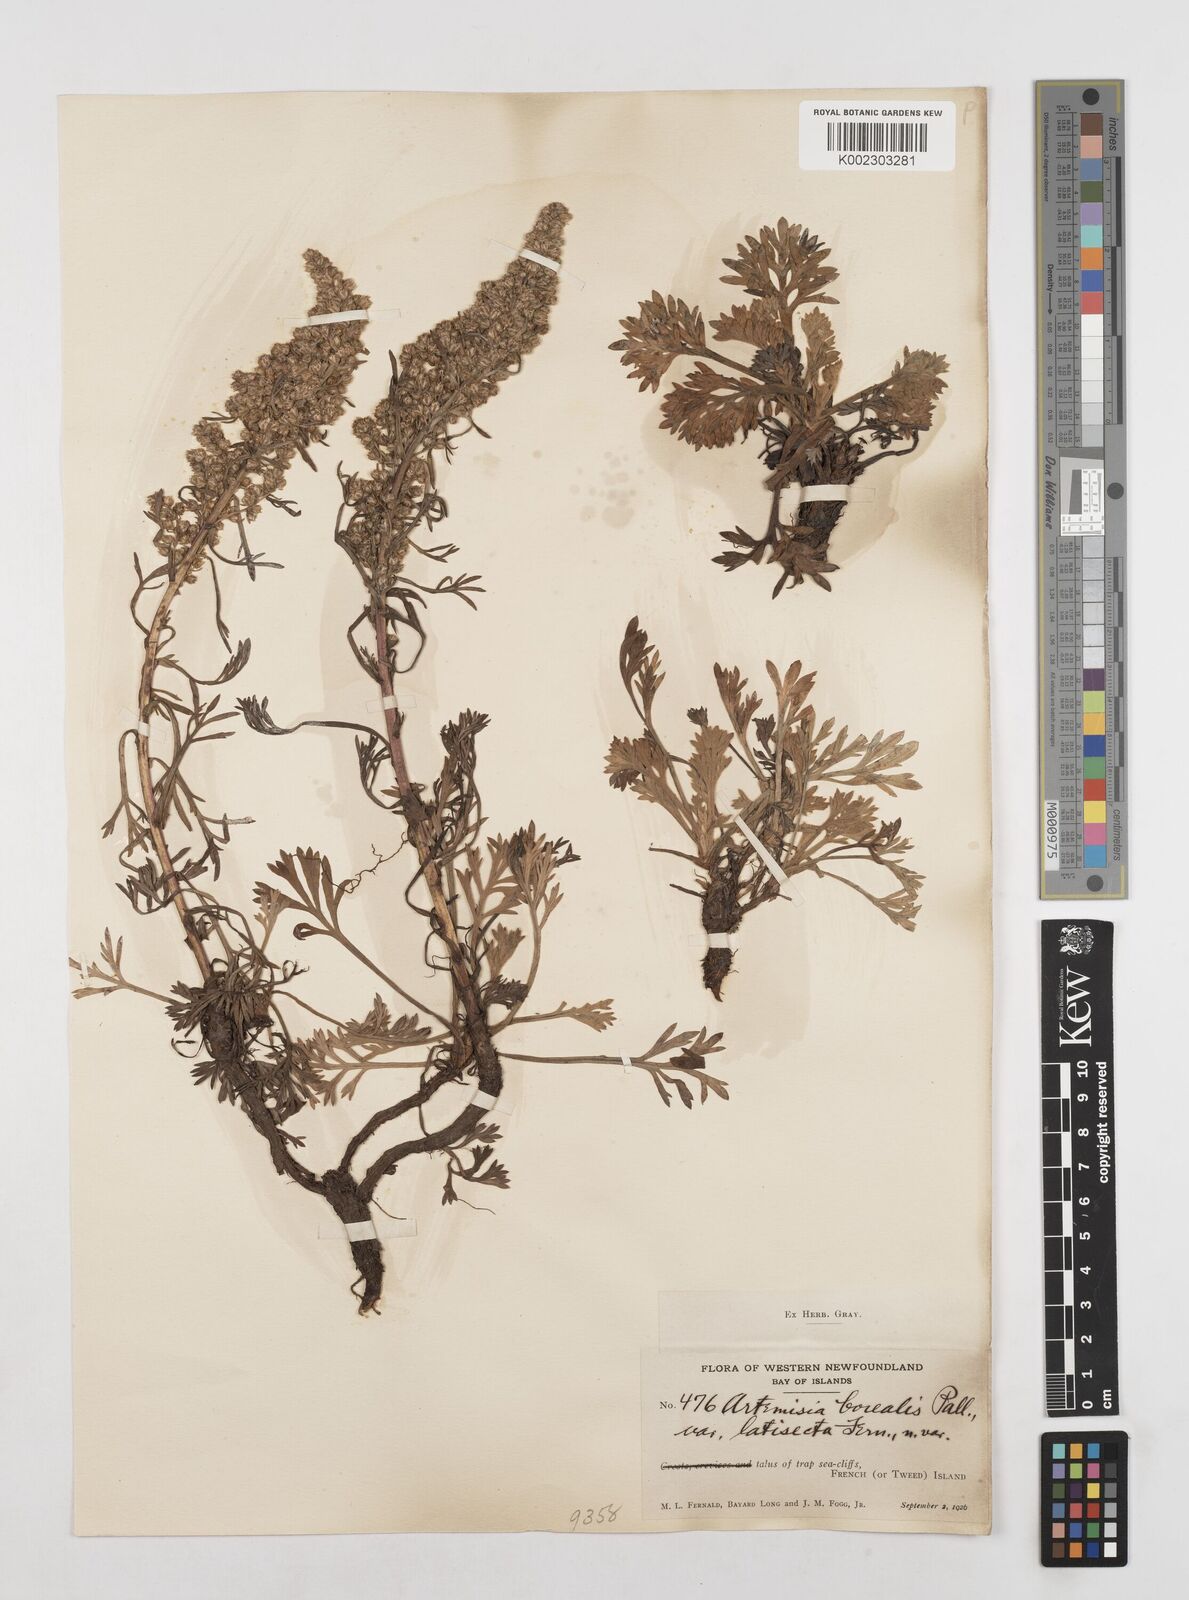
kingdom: Plantae
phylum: Tracheophyta
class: Magnoliopsida
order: Asterales
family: Asteraceae
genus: Artemisia
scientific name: Artemisia borealis
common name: Boreal sage
